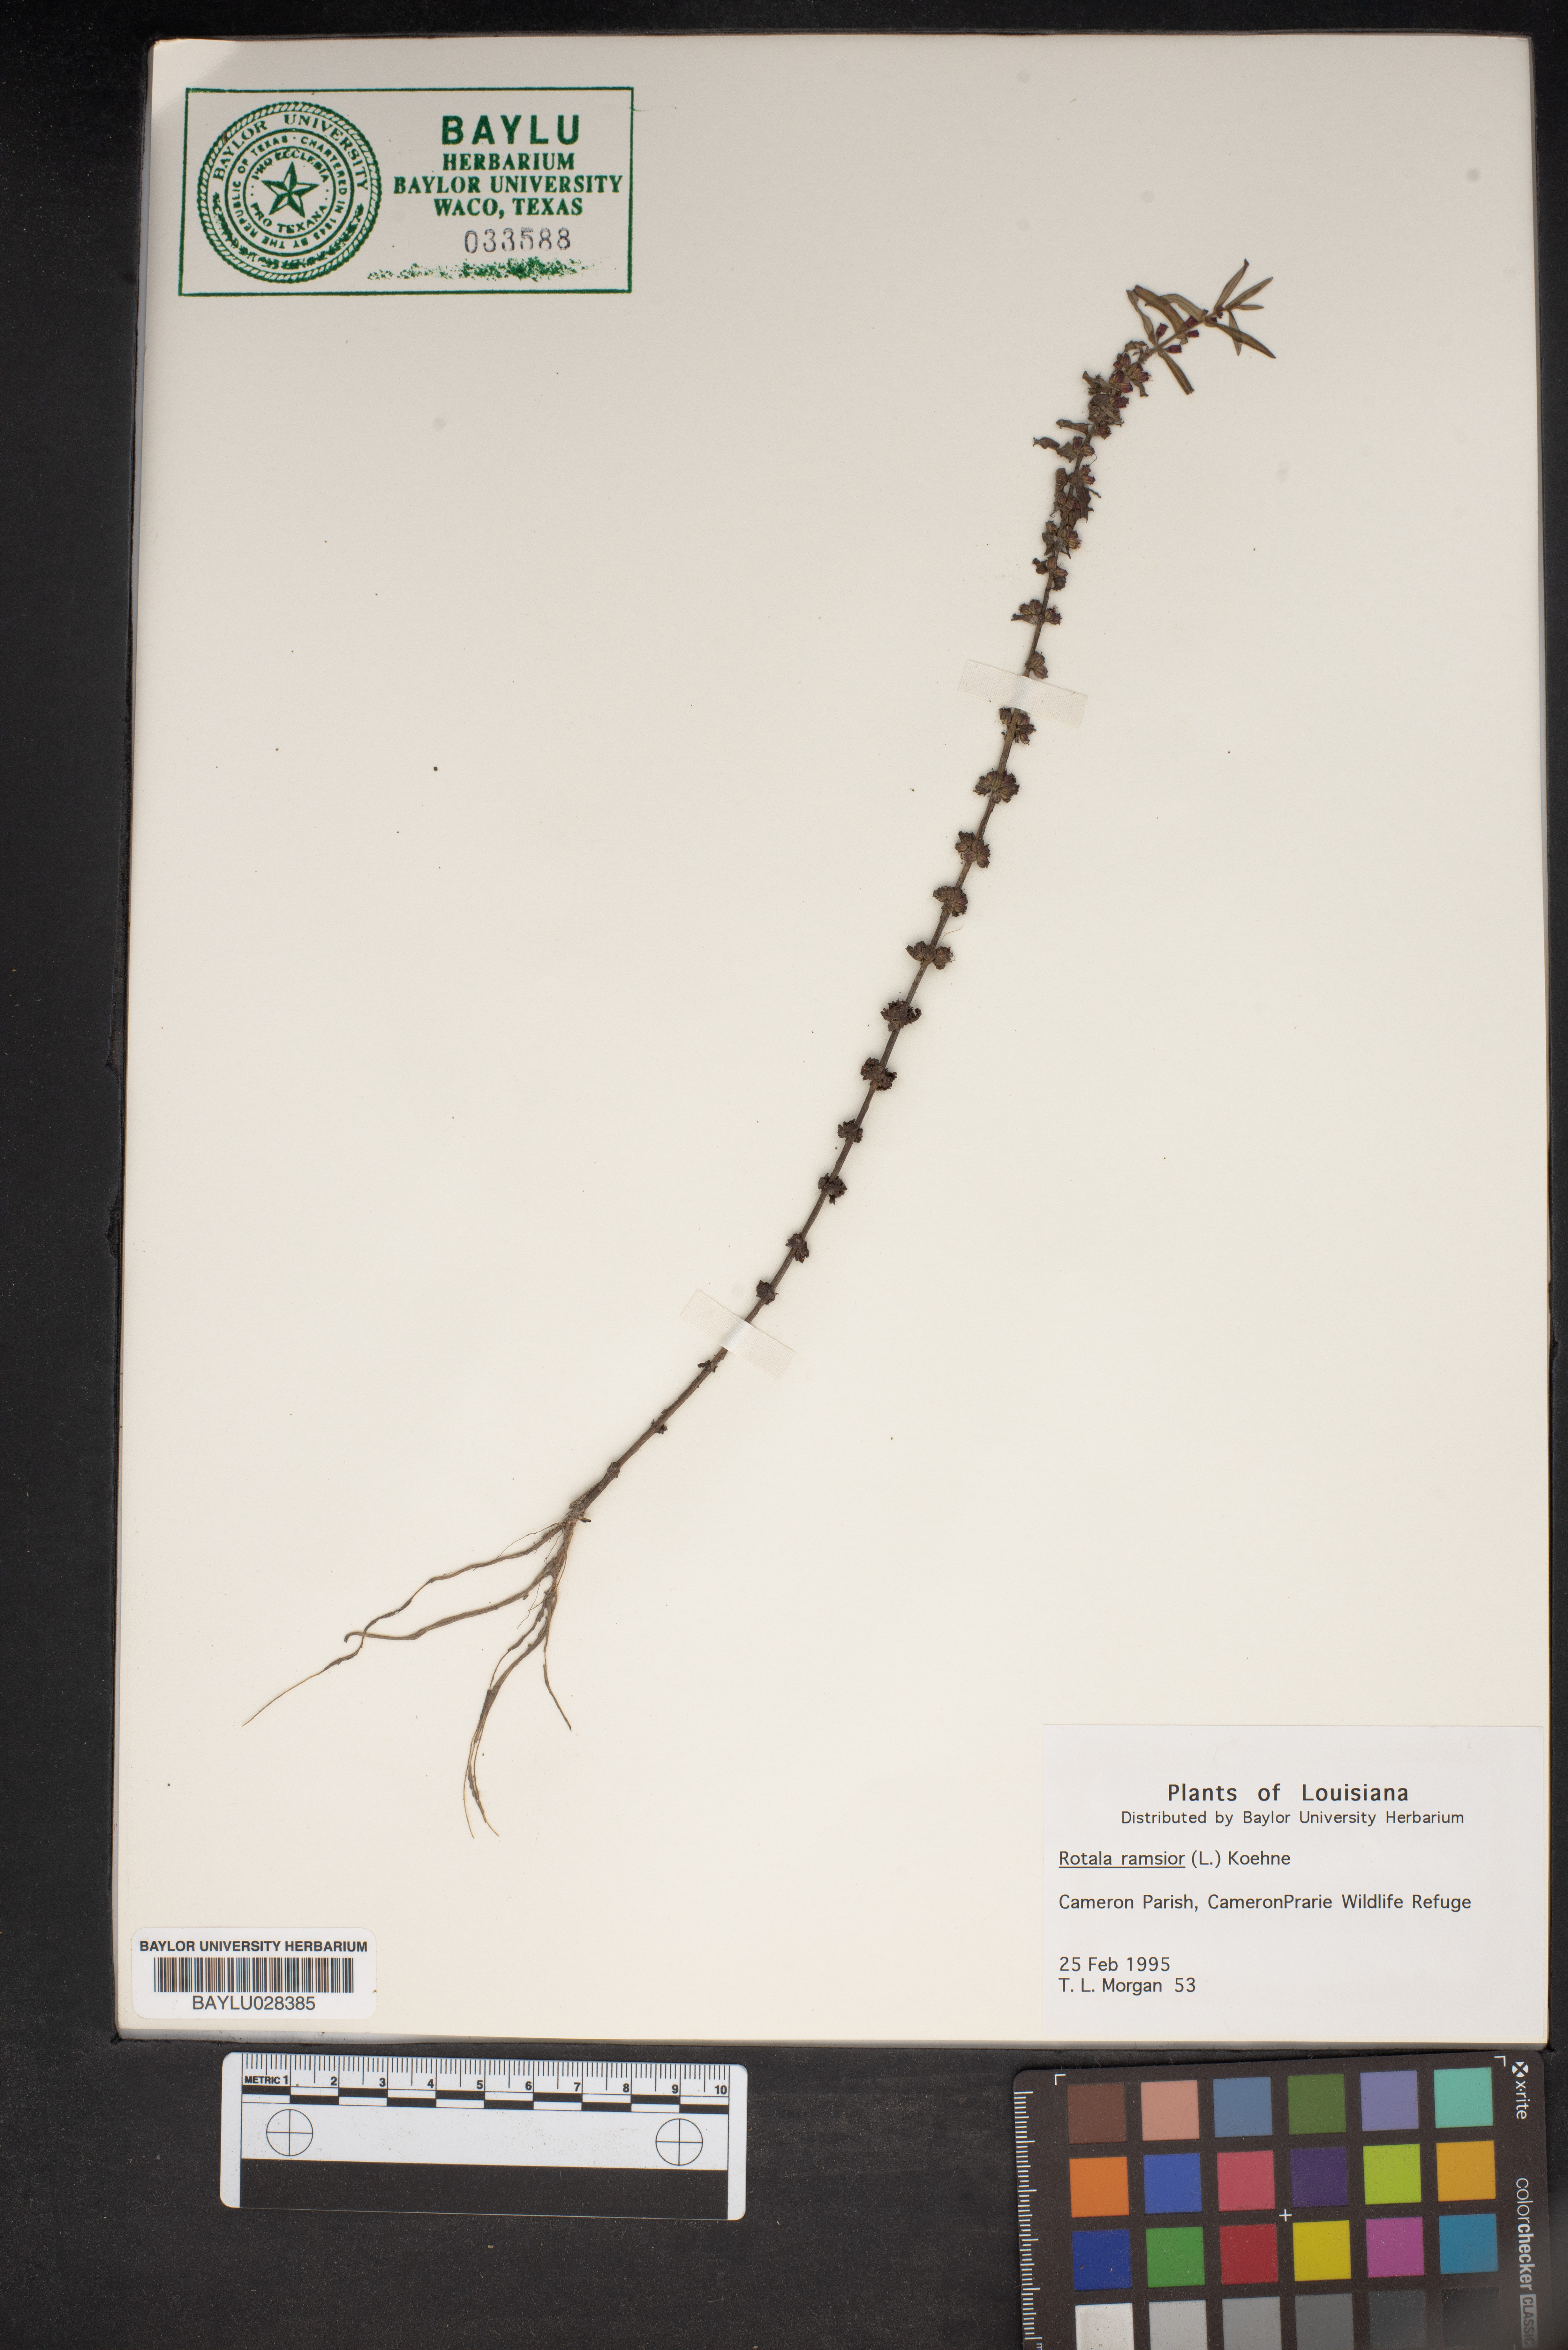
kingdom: Plantae
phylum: Tracheophyta
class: Magnoliopsida
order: Myrtales
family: Lythraceae
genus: Rotala
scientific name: Rotala ramosior
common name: Lowland rotala
